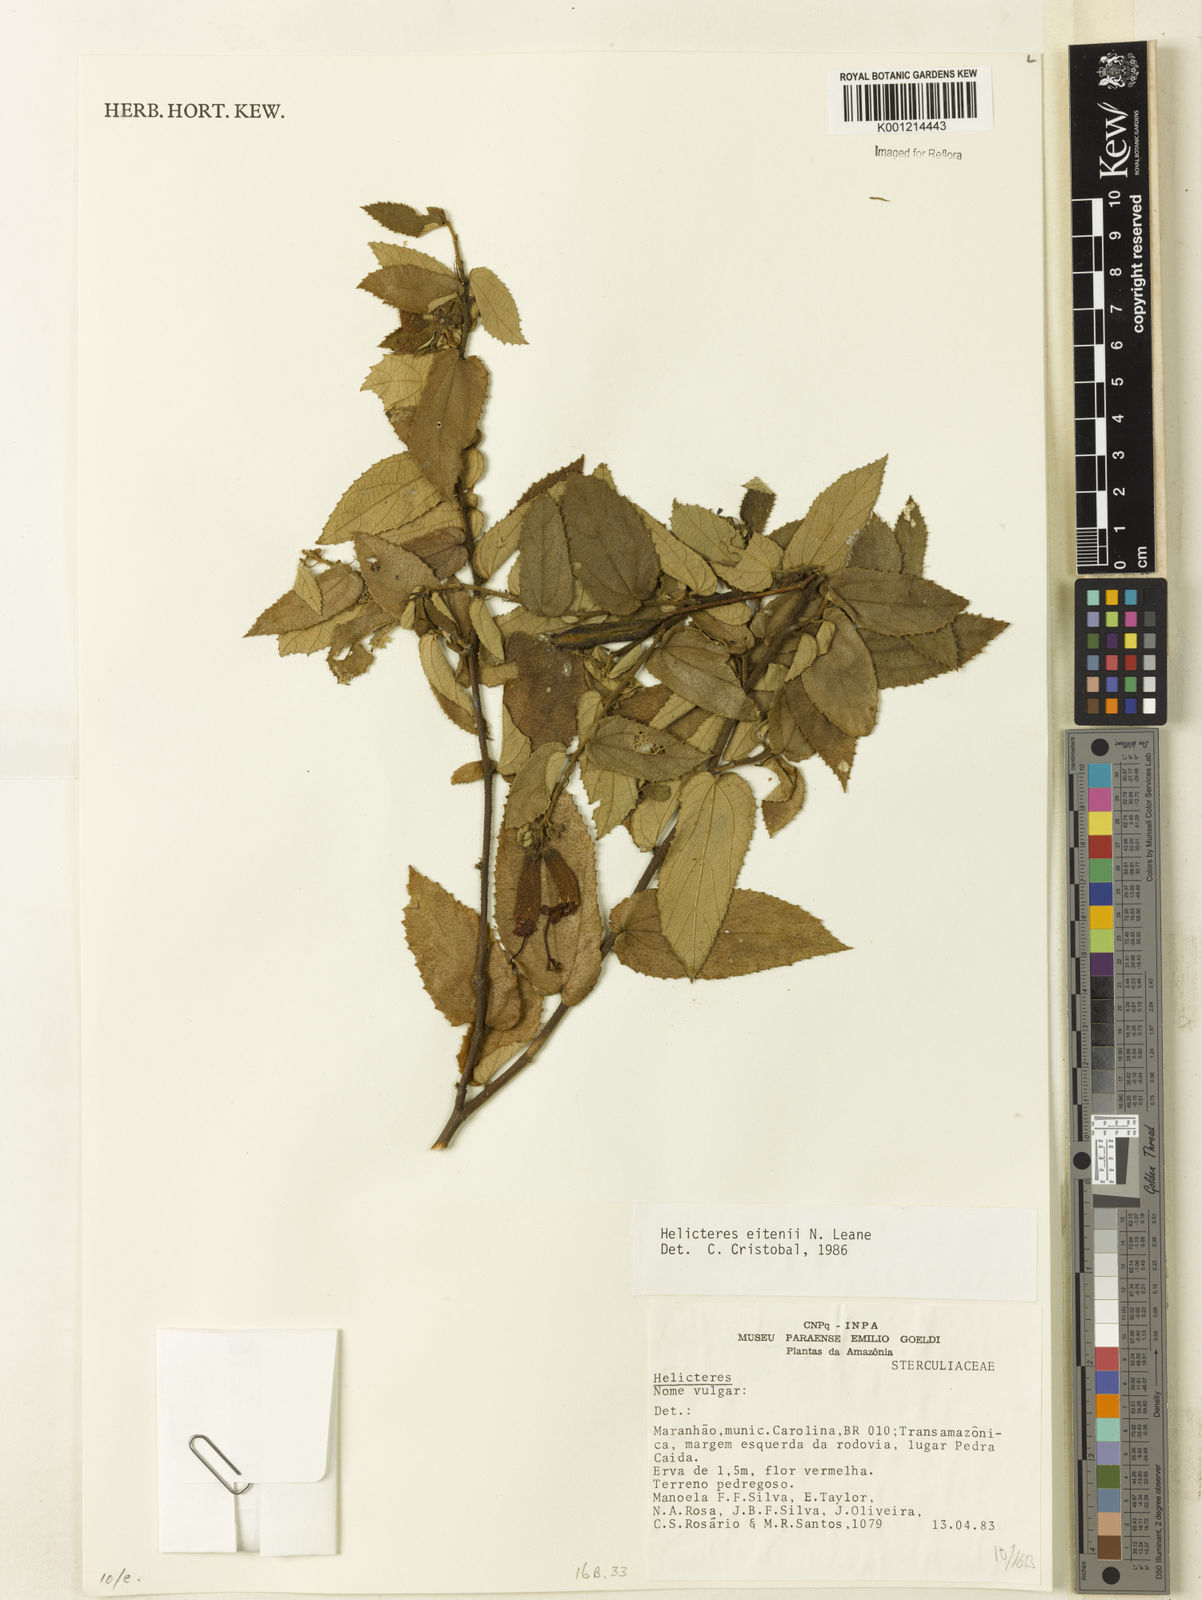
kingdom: Plantae
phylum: Tracheophyta
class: Magnoliopsida
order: Malvales
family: Malvaceae
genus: Helicteres
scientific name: Helicteres eitenii
